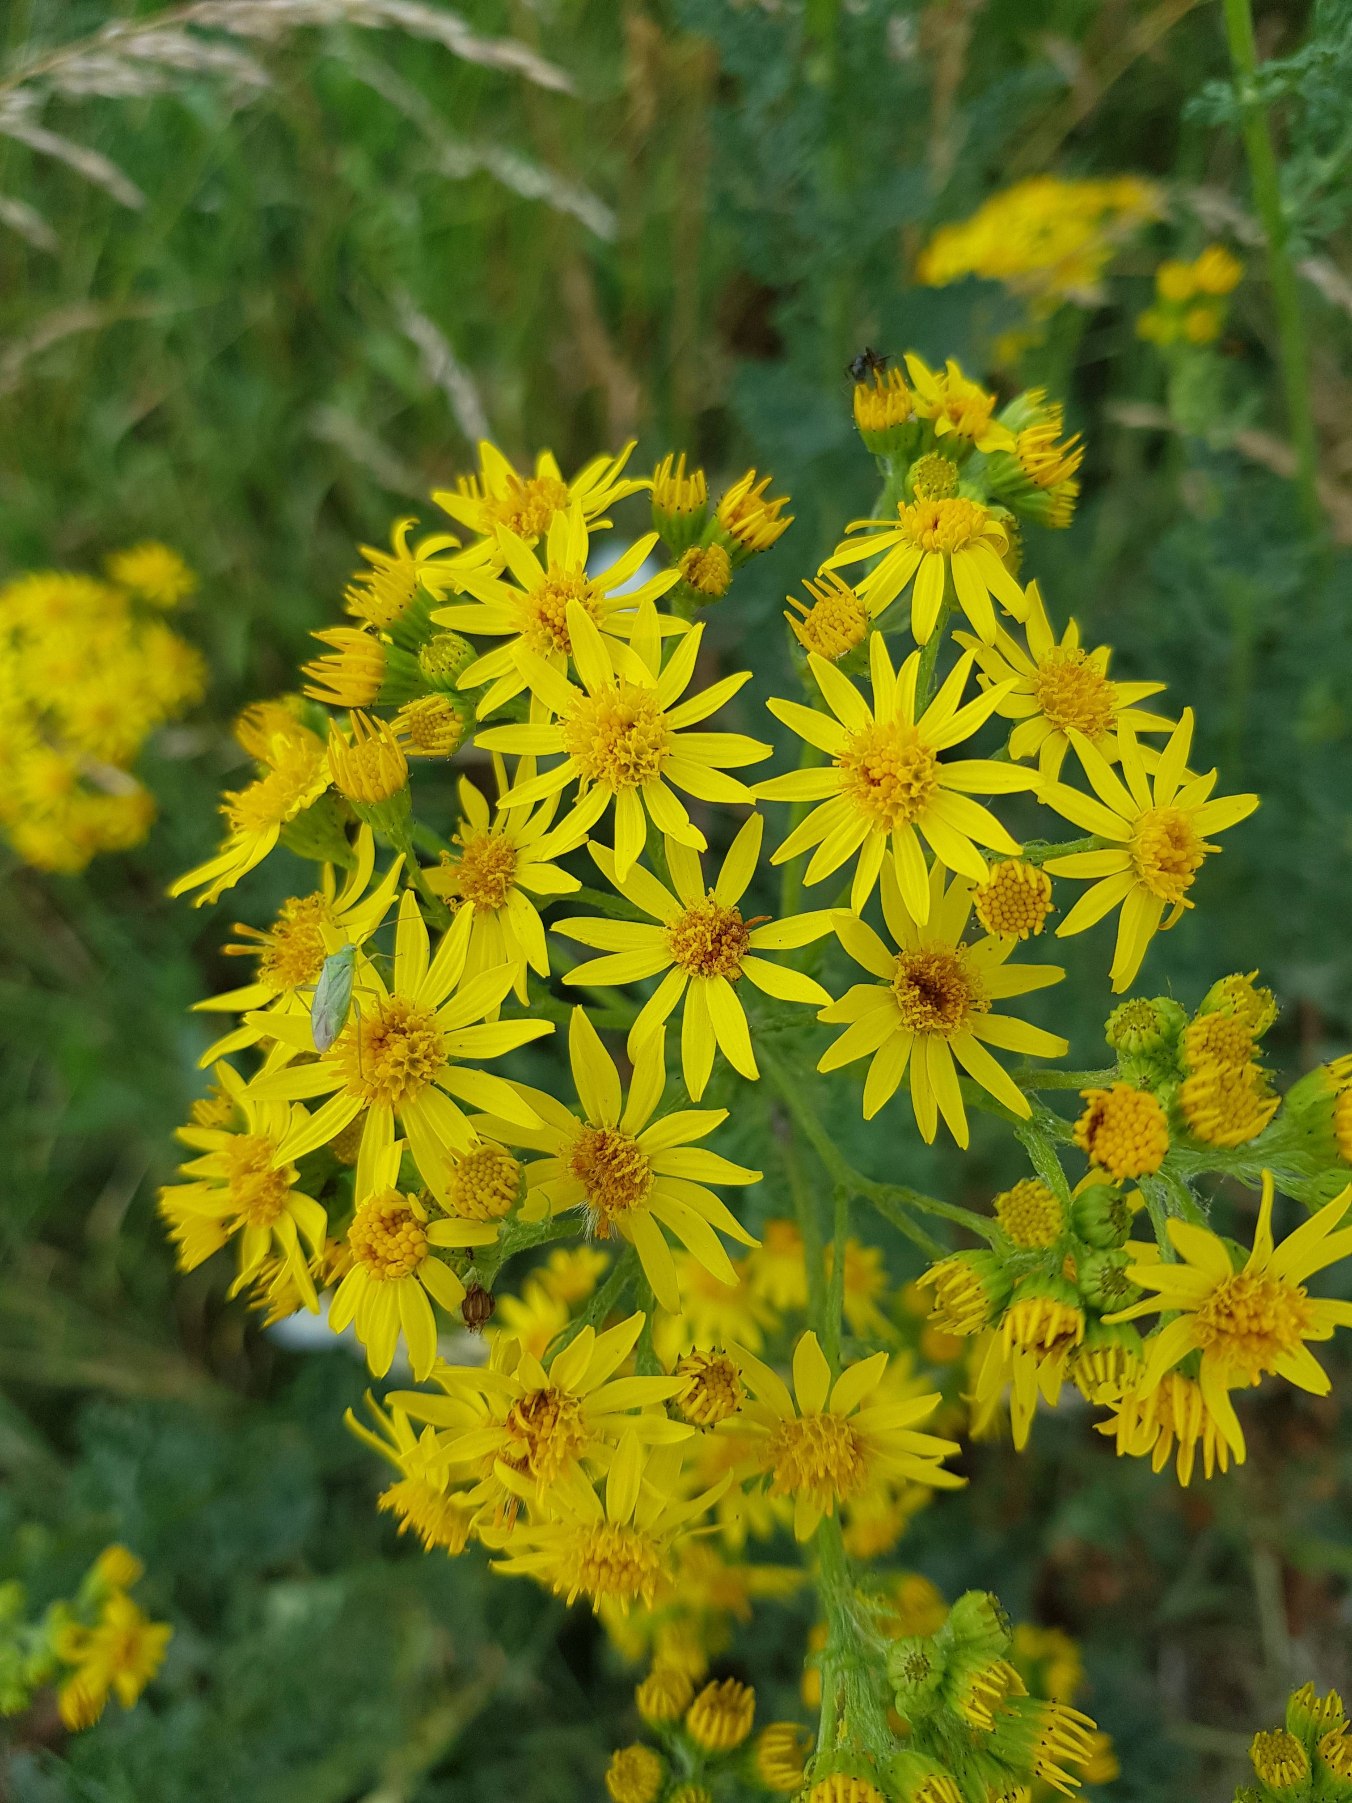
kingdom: Plantae
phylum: Tracheophyta
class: Magnoliopsida
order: Asterales
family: Asteraceae
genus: Jacobaea
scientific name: Jacobaea vulgaris
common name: Eng-brandbæger
